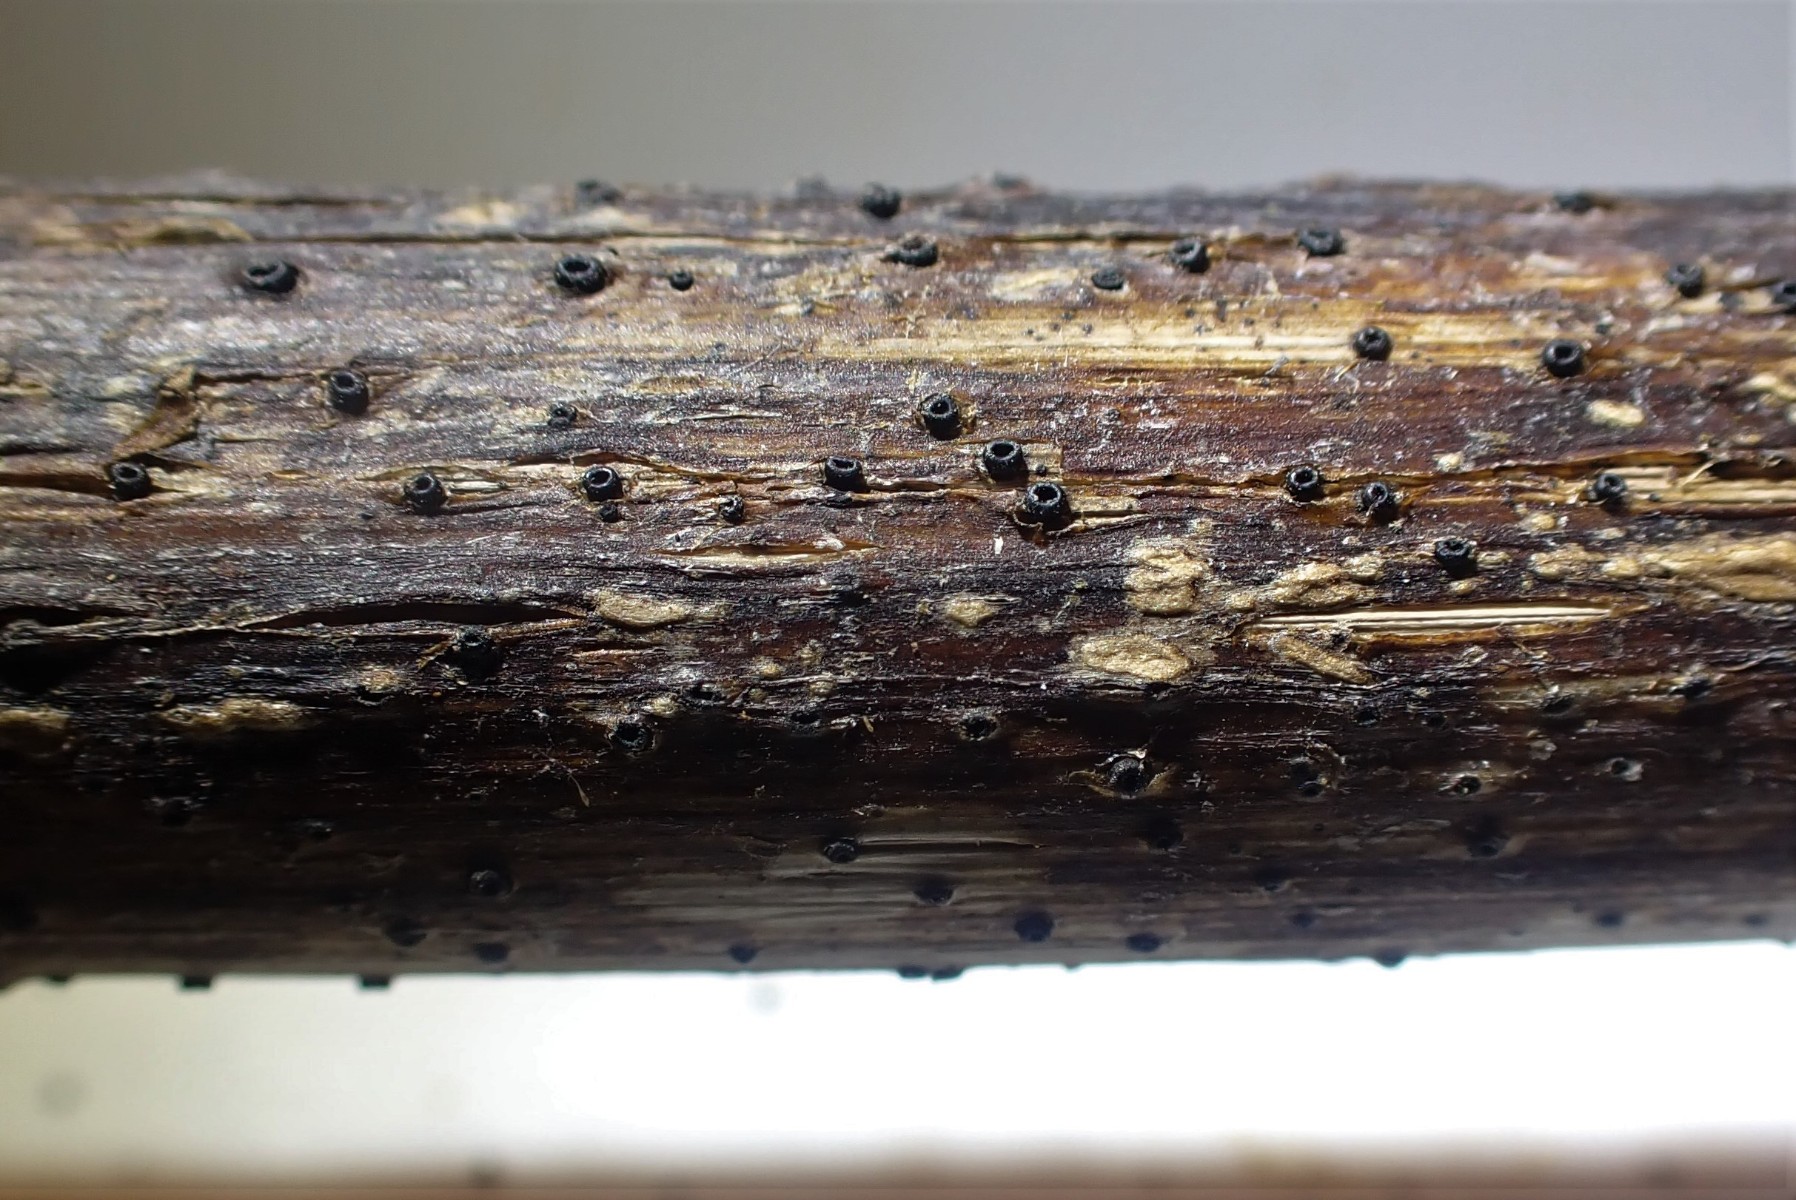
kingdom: Fungi
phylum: Ascomycota
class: Leotiomycetes
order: Helotiales
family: Heterosphaeriaceae
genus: Heterosphaeria
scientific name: Heterosphaeria
